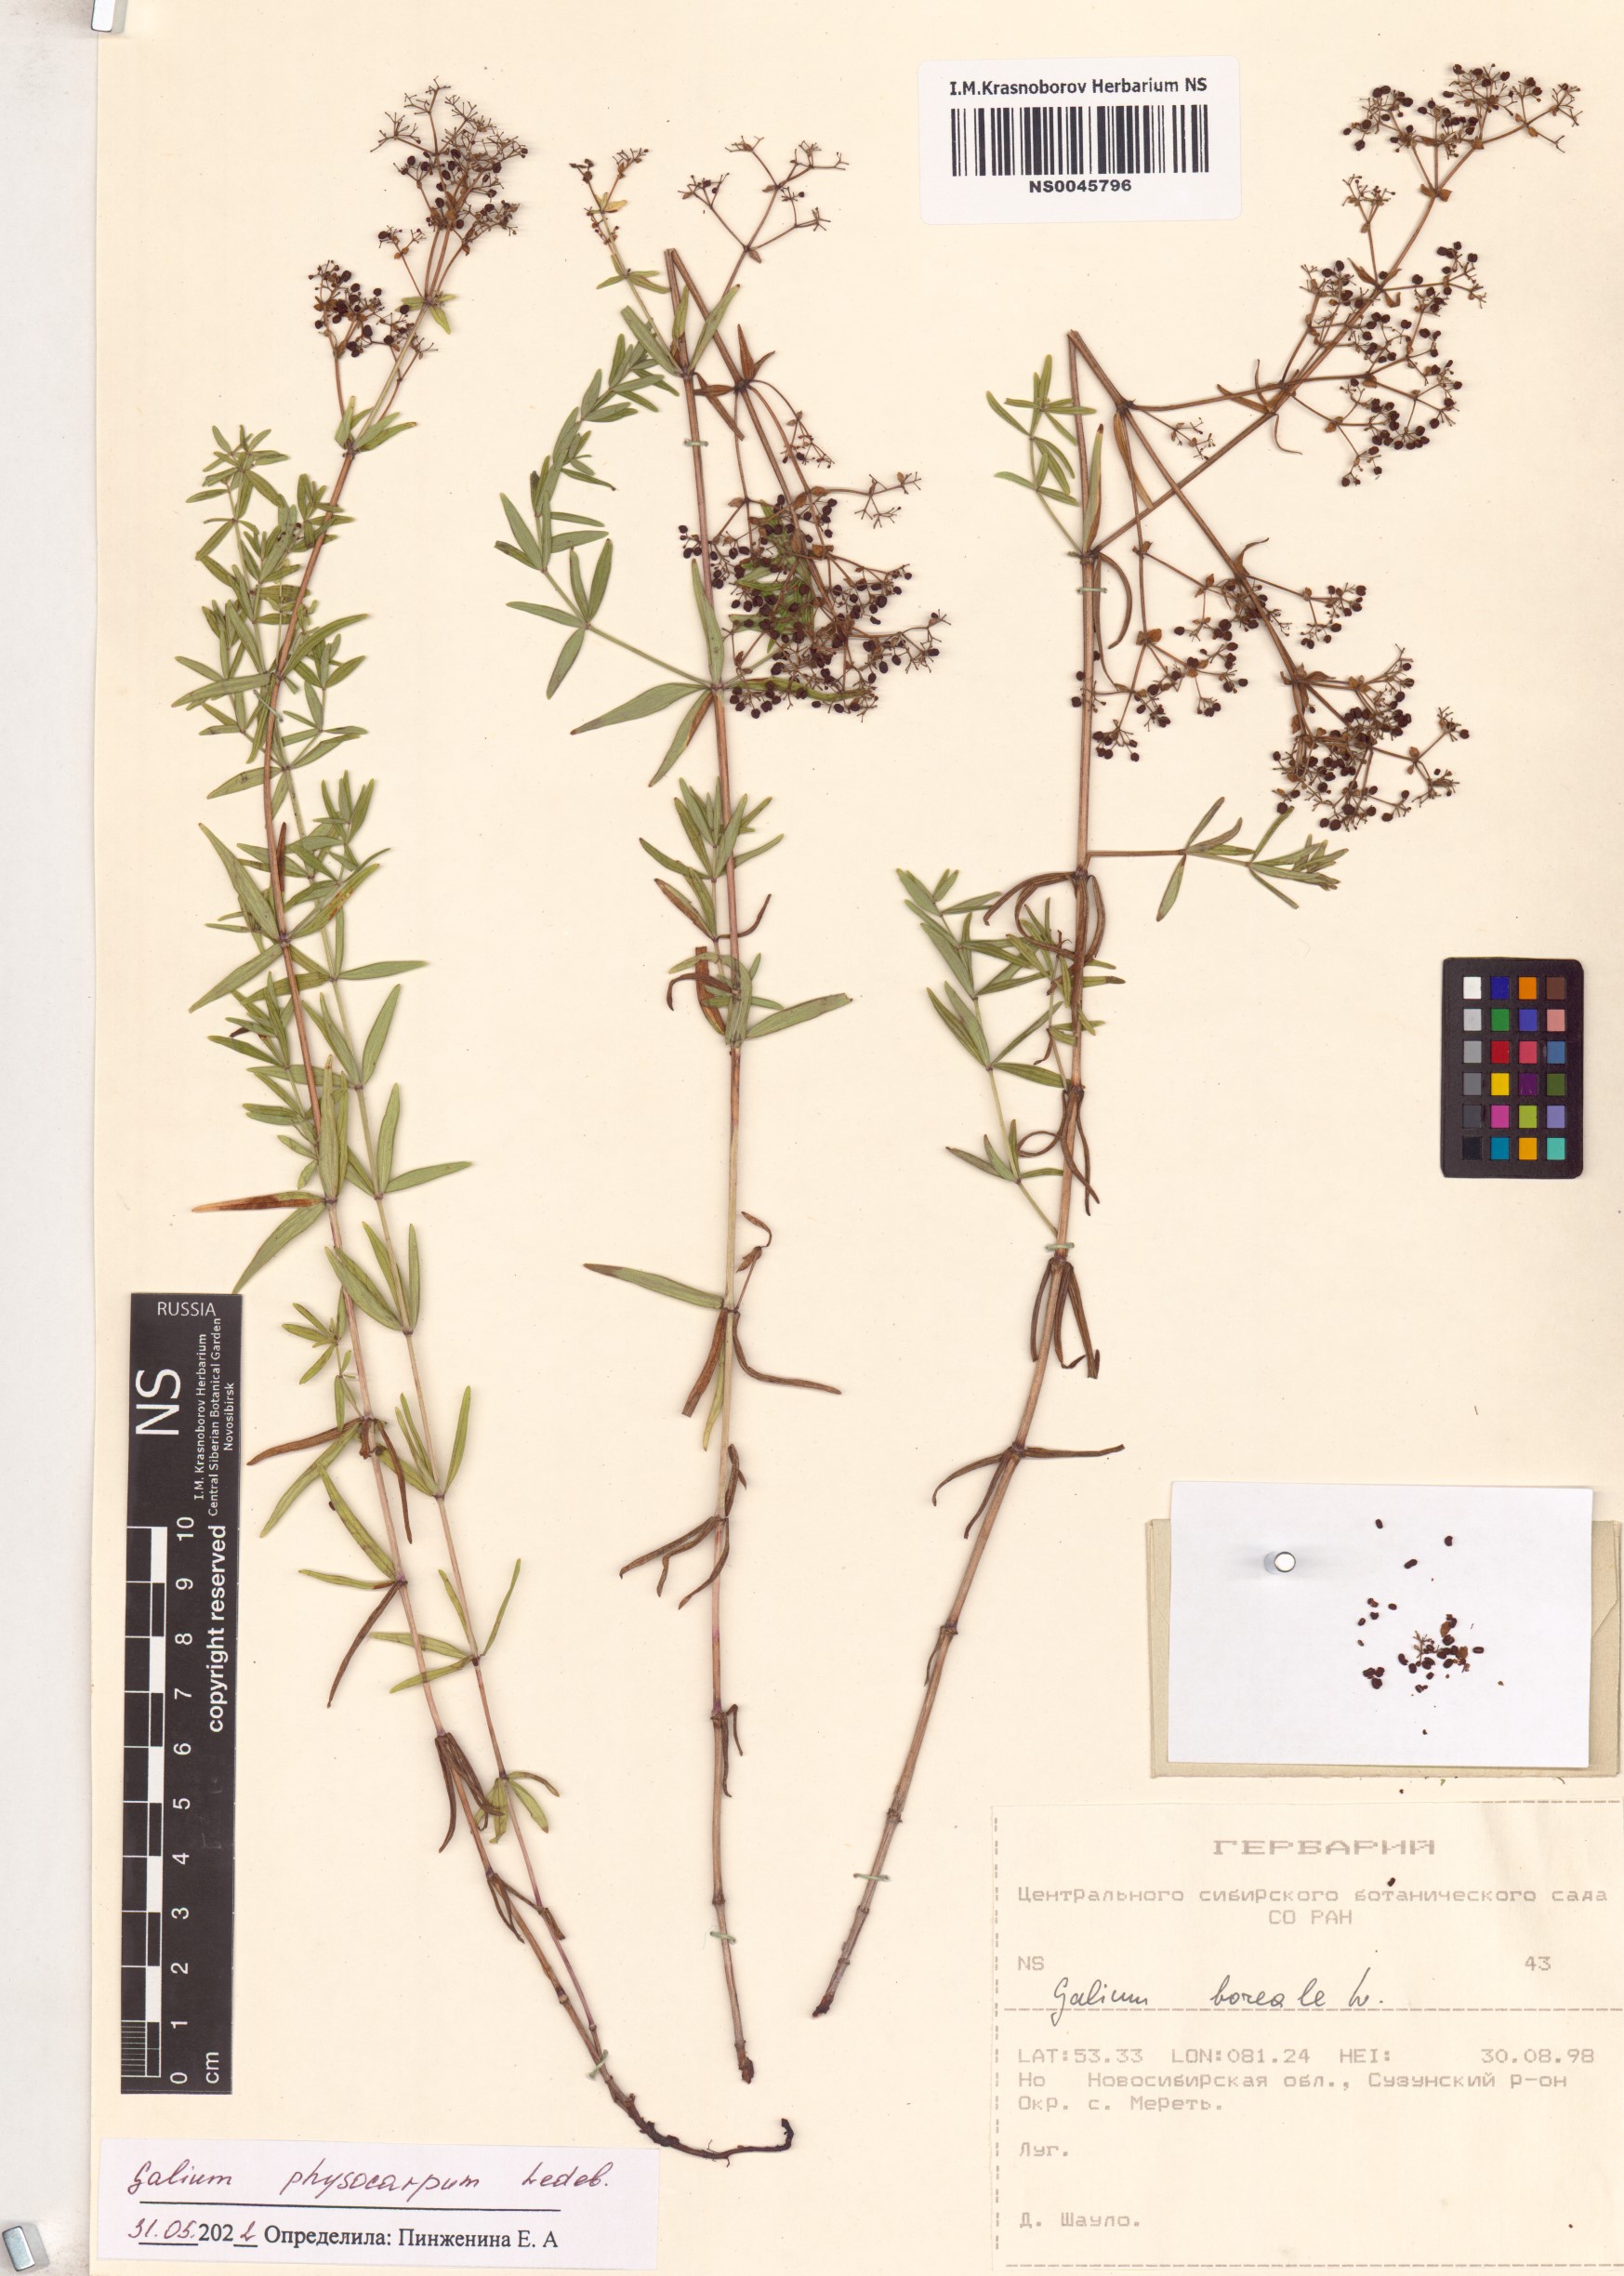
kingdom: Plantae
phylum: Tracheophyta
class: Magnoliopsida
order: Gentianales
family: Rubiaceae
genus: Galium
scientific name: Galium rubioides
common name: European bedstraw
